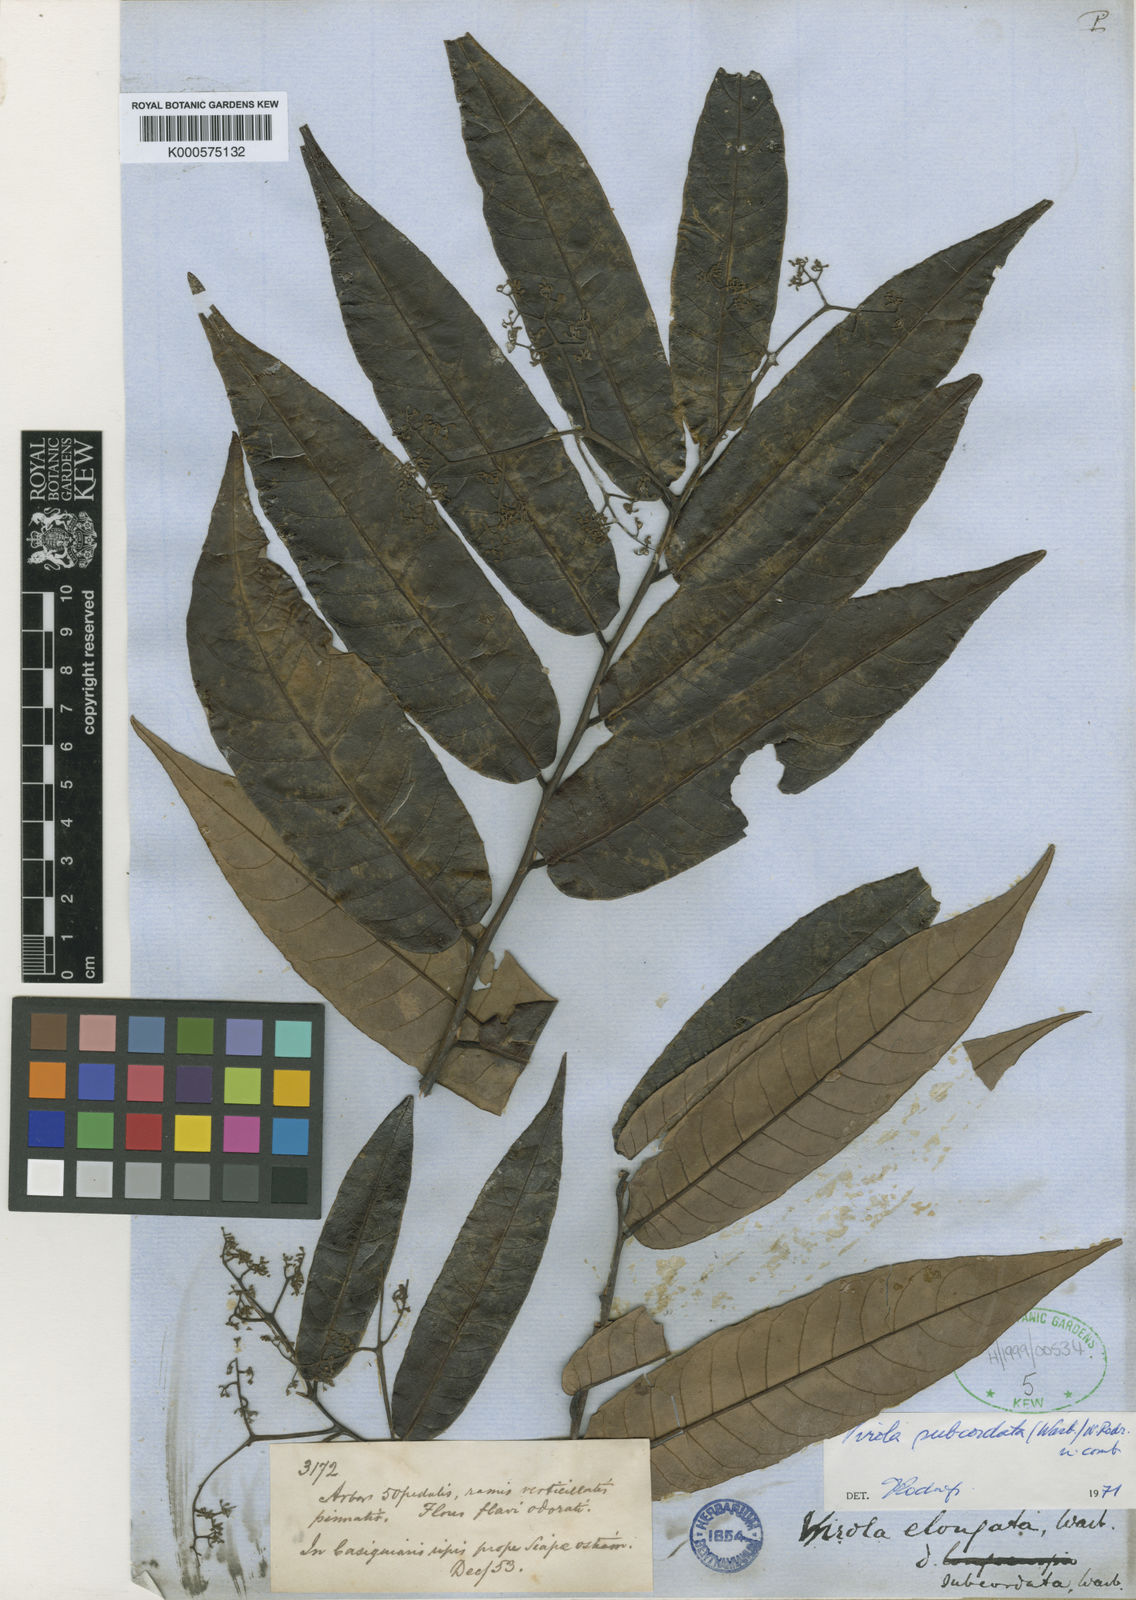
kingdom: Plantae
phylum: Tracheophyta
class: Magnoliopsida
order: Magnoliales
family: Myristicaceae
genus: Virola
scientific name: Virola elongata
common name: Sacred virola
